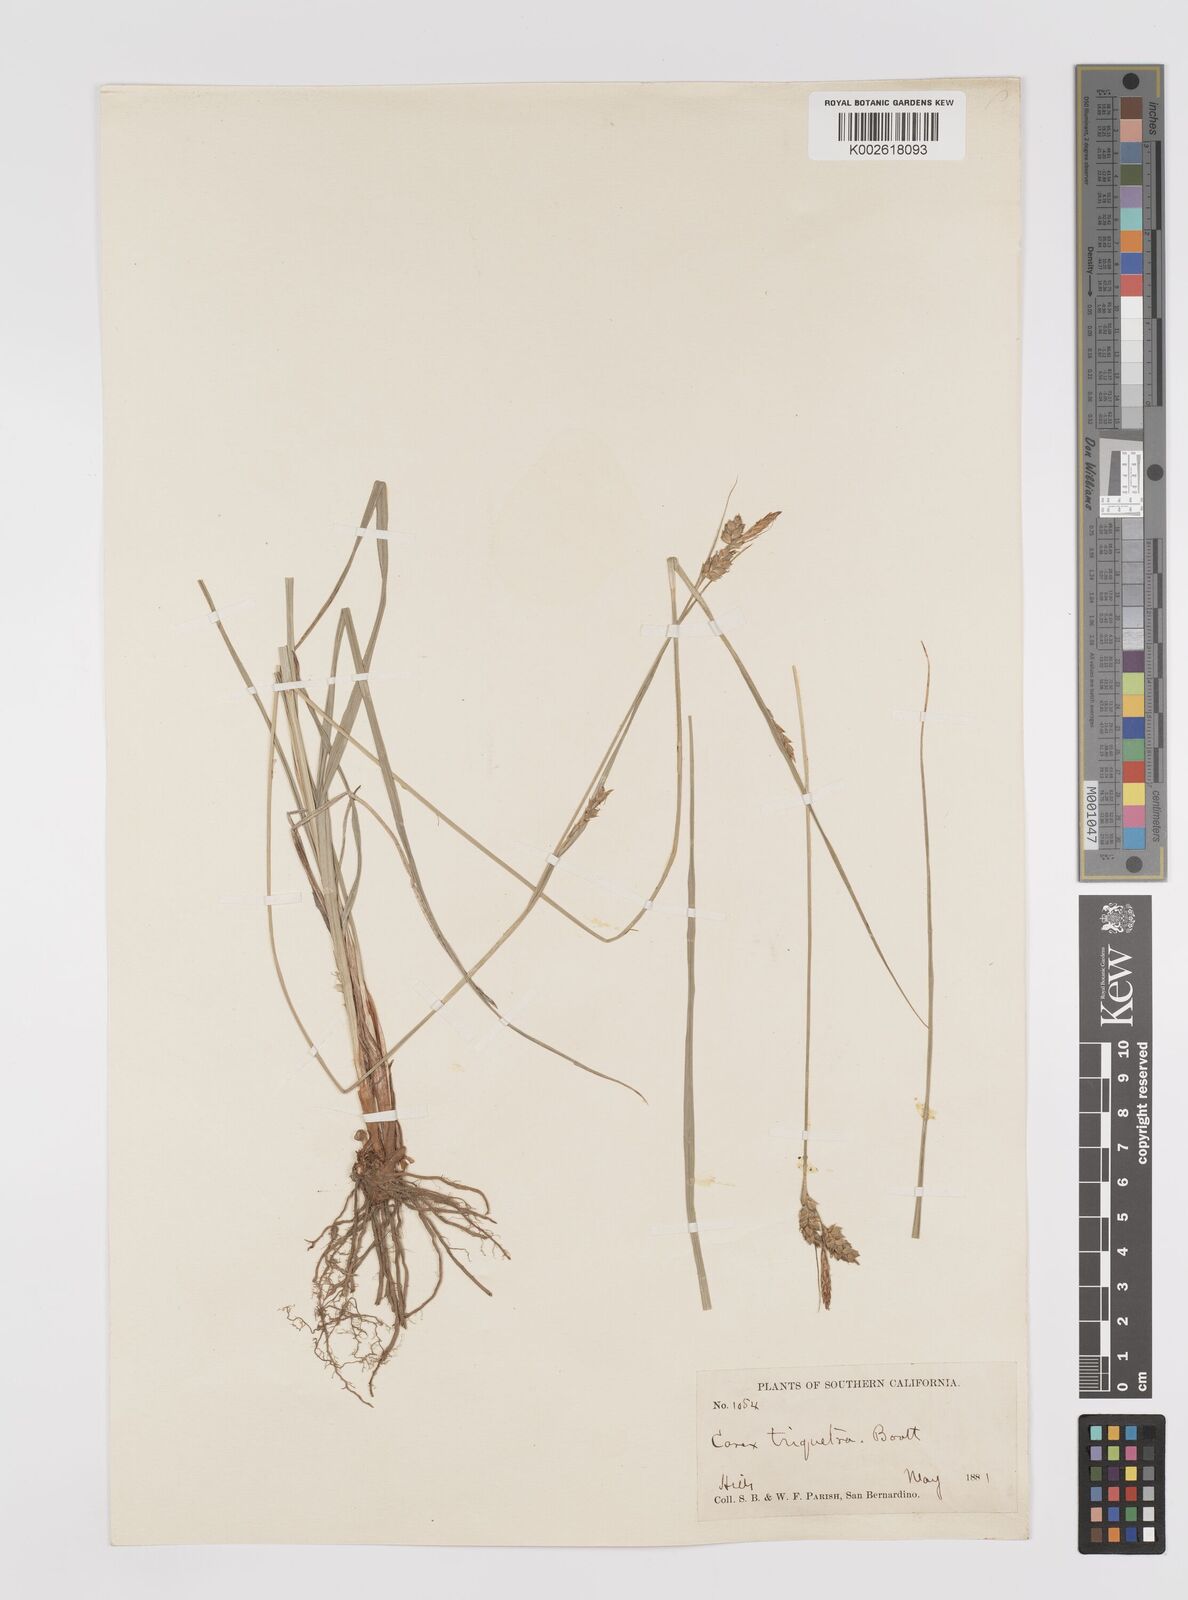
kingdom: Plantae
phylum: Tracheophyta
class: Liliopsida
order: Poales
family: Cyperaceae
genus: Carex
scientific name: Carex triquetra
